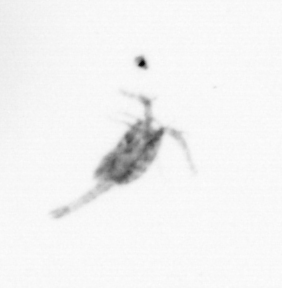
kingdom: Animalia
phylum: Arthropoda
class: Copepoda
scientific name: Copepoda
